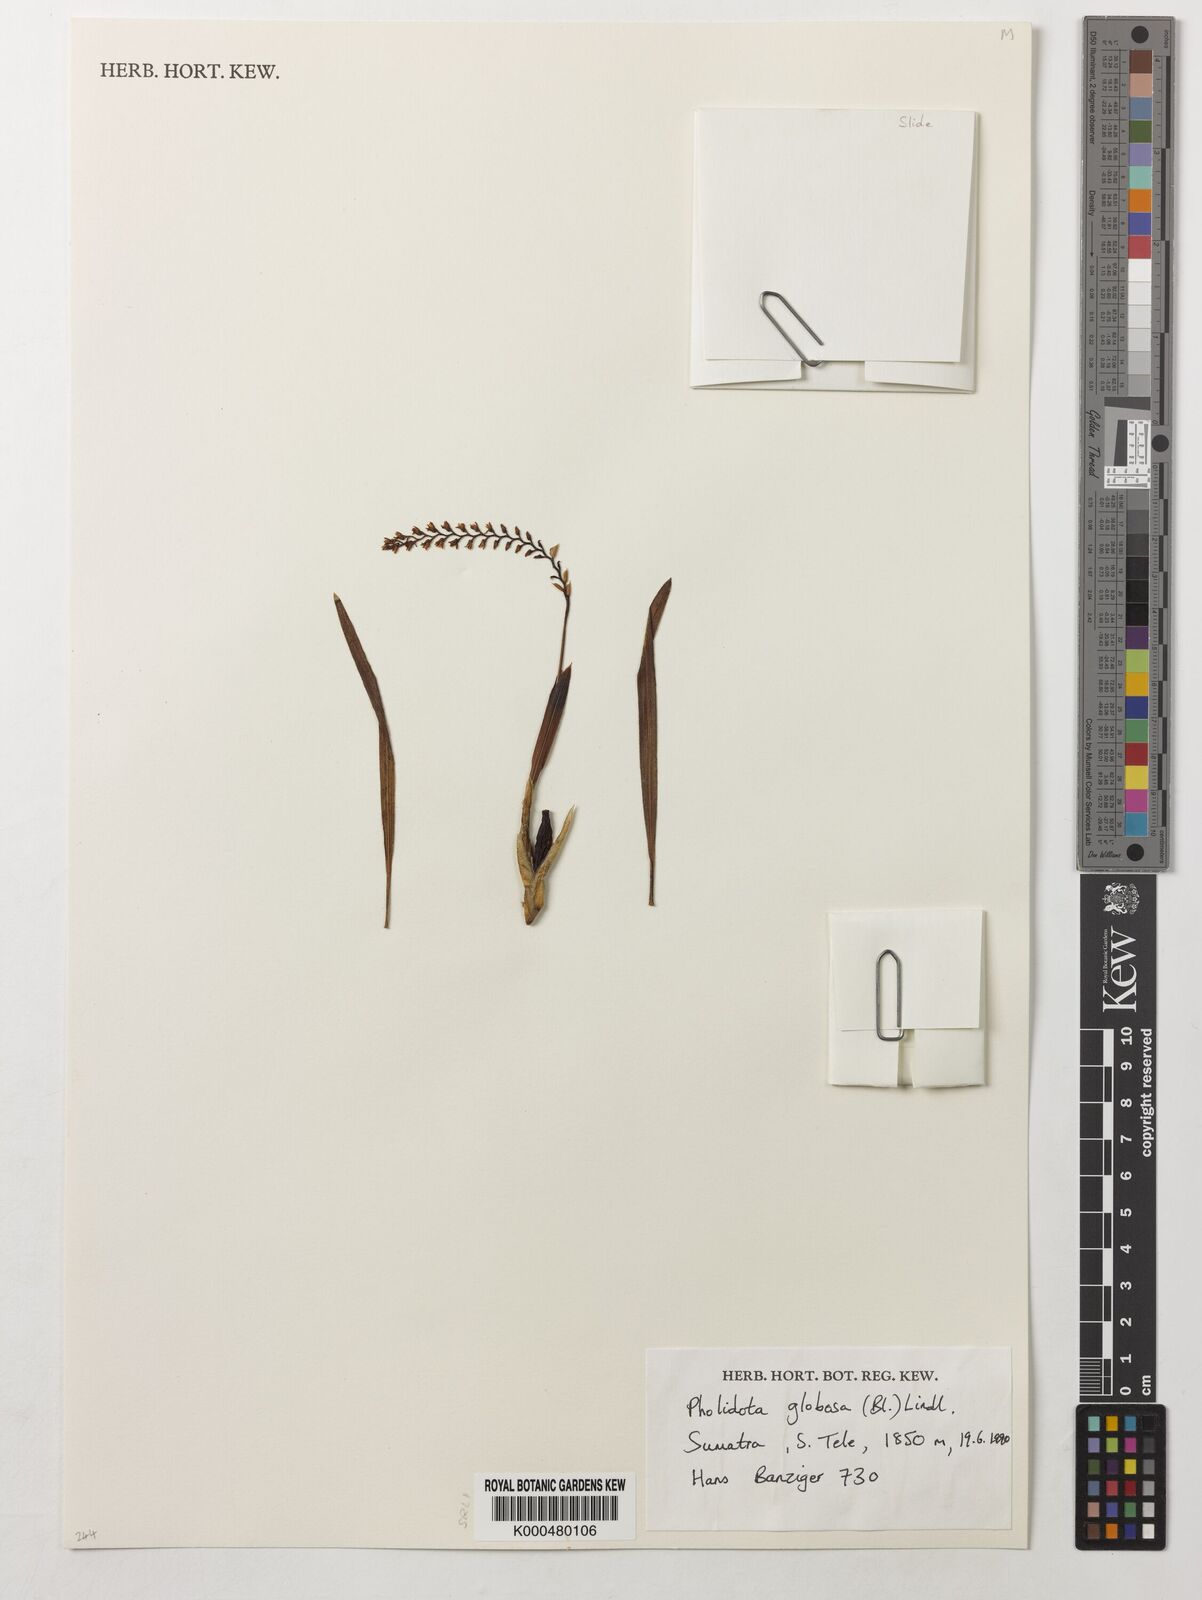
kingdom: Plantae
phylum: Tracheophyta
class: Liliopsida
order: Asparagales
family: Orchidaceae
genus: Coelogyne
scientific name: Coelogyne globosa
